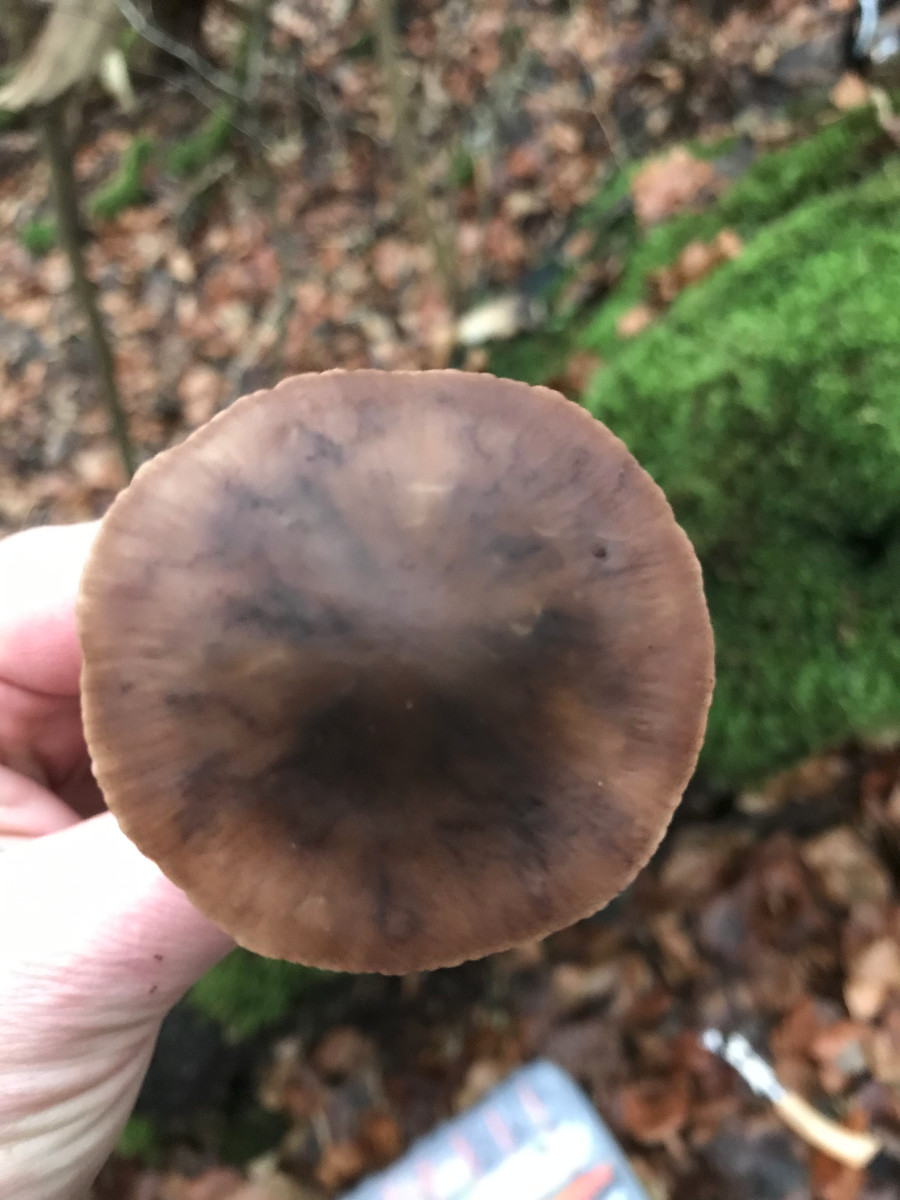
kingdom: Fungi
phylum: Basidiomycota
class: Agaricomycetes
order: Agaricales
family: Omphalotaceae
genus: Mycetinis
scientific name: Mycetinis alliaceus
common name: stor løghat
